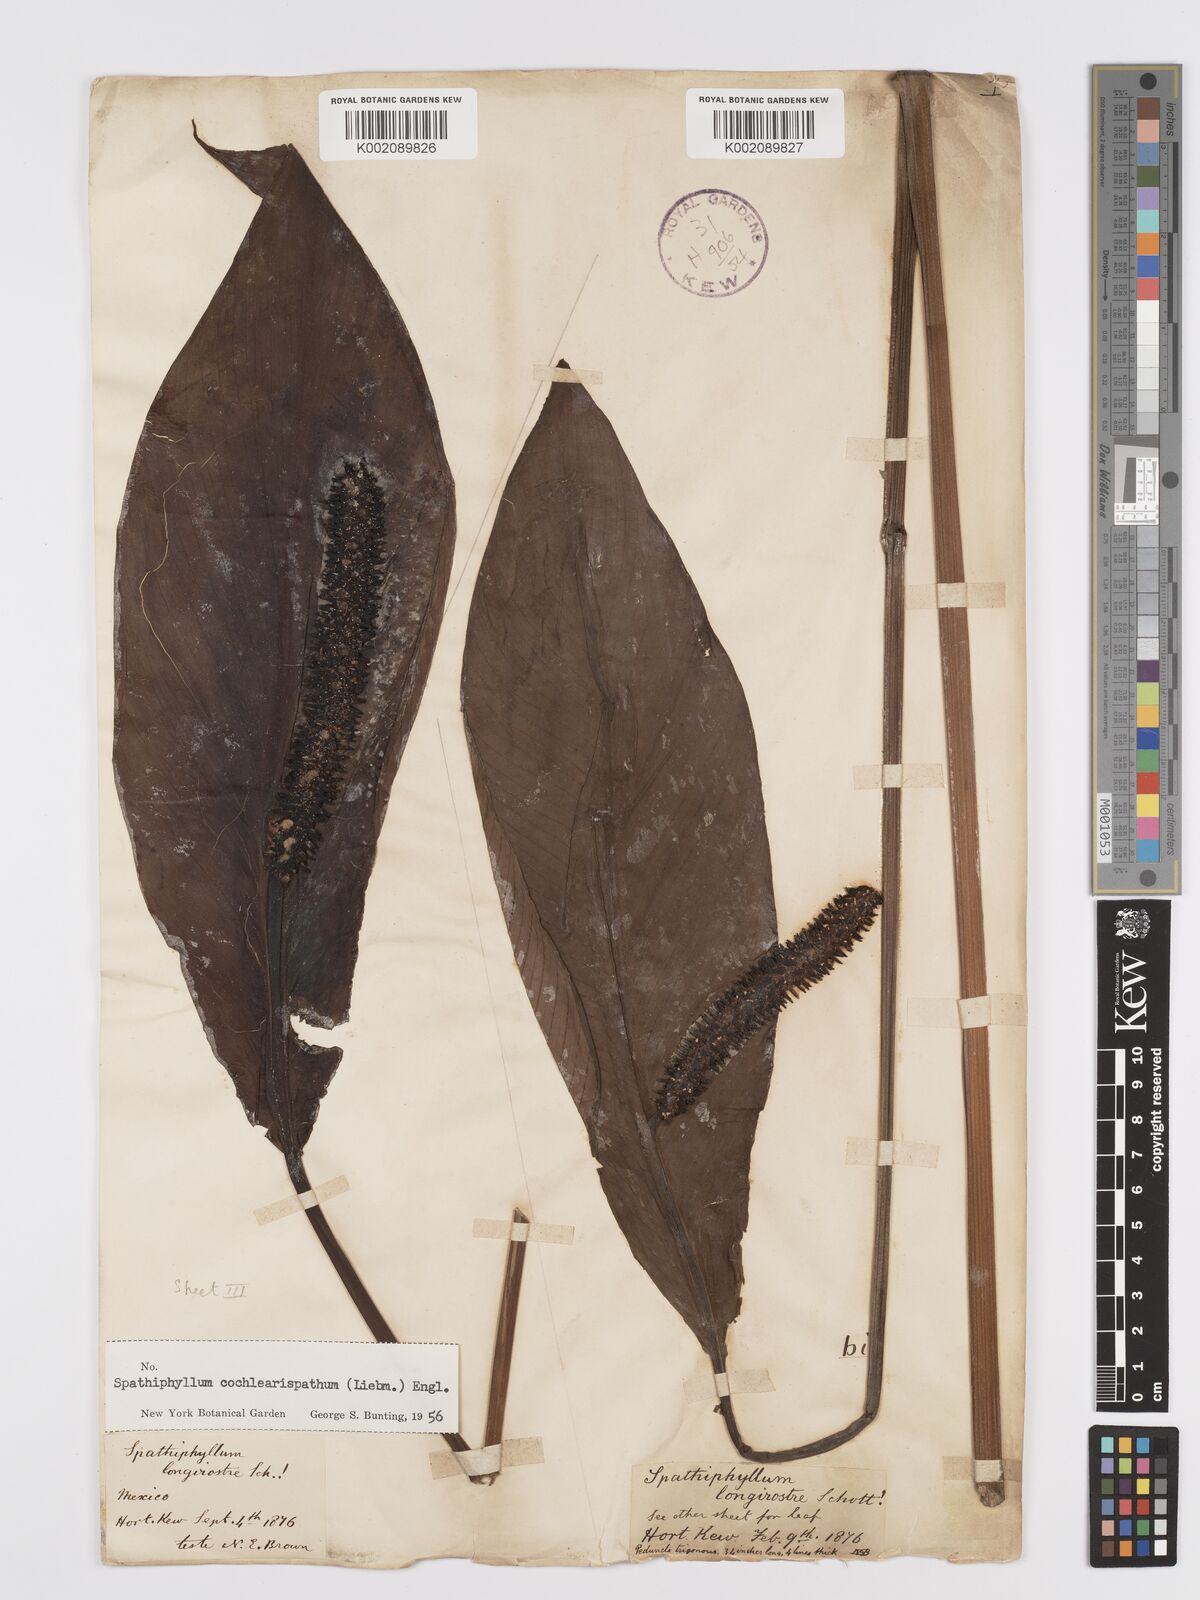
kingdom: Plantae
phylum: Tracheophyta
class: Liliopsida
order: Alismatales
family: Araceae
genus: Spathiphyllum
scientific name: Spathiphyllum cochlearispathum
